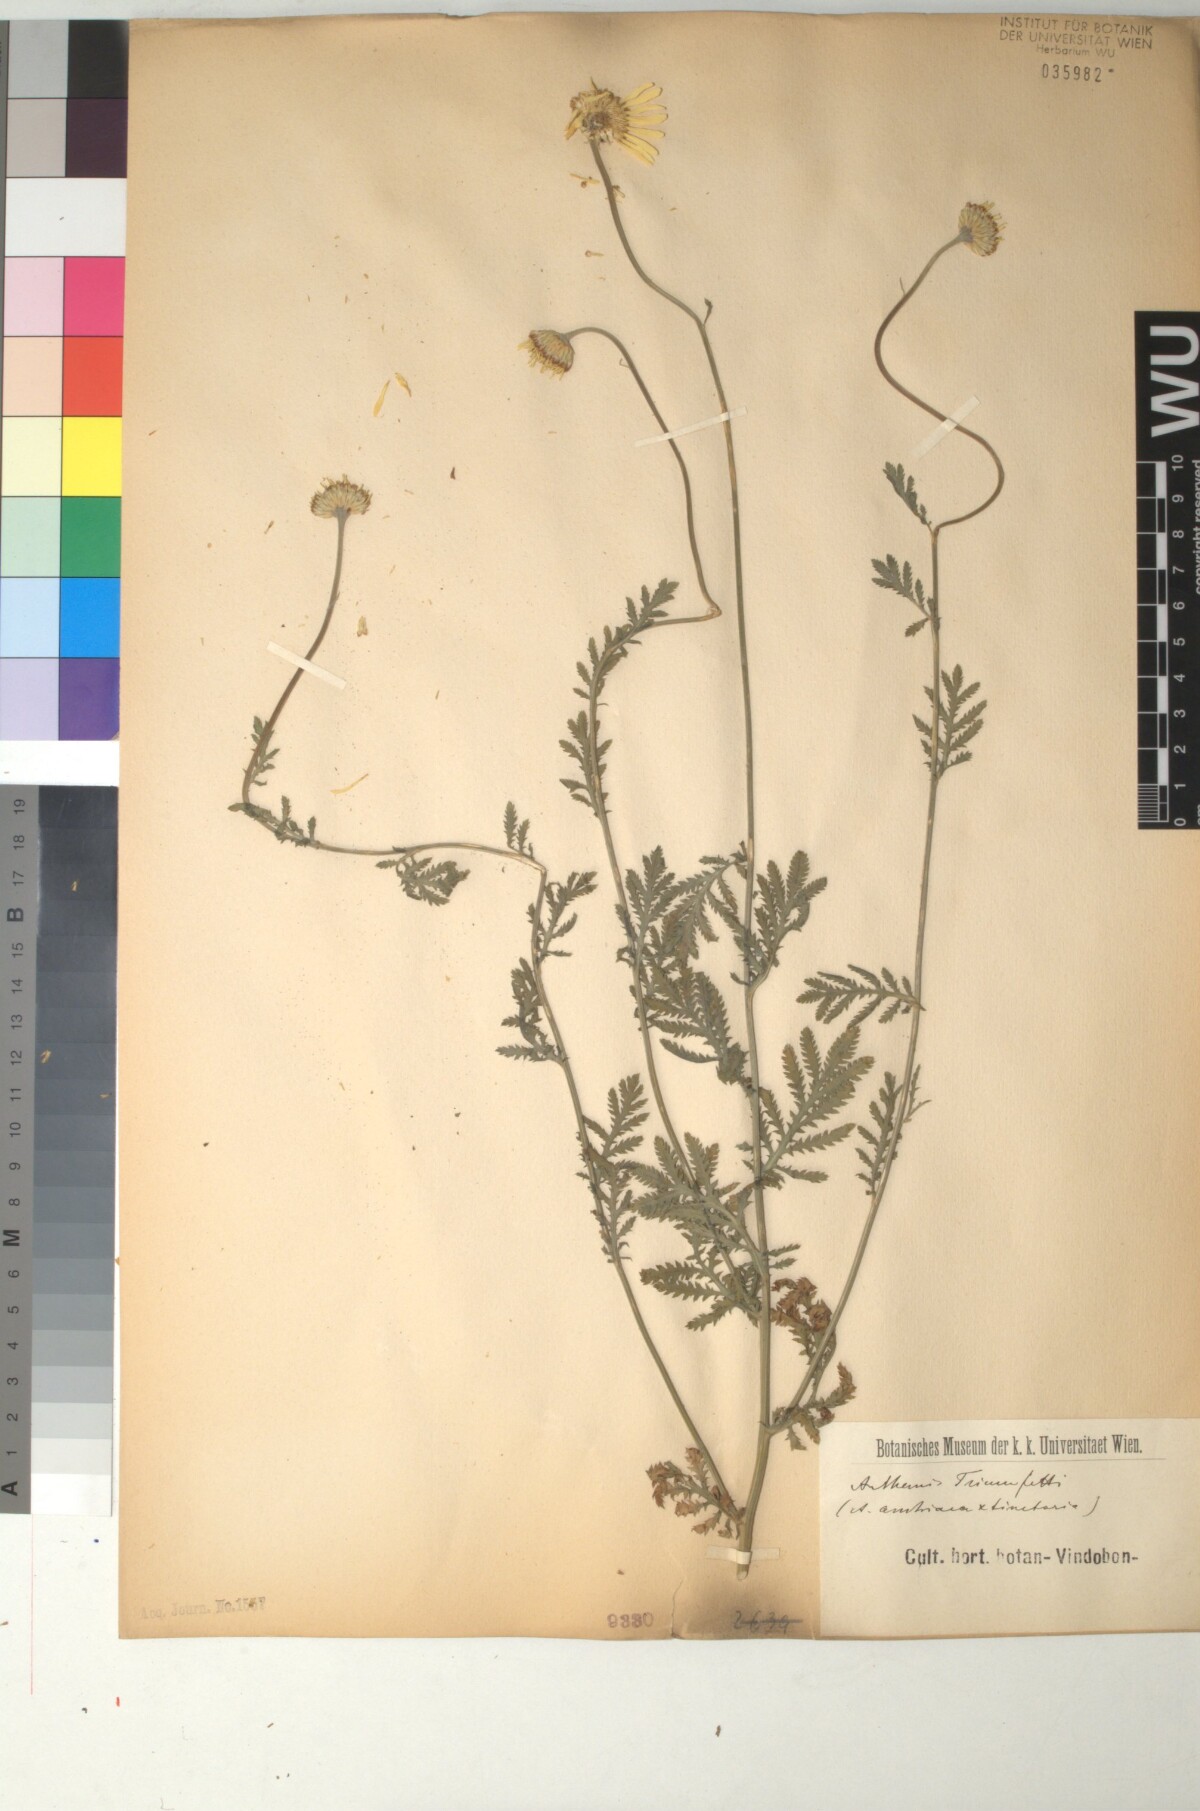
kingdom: Plantae
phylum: Tracheophyta
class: Magnoliopsida
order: Asterales
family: Asteraceae
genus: Cota
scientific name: Cota austriaca
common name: Austrian chamomile
